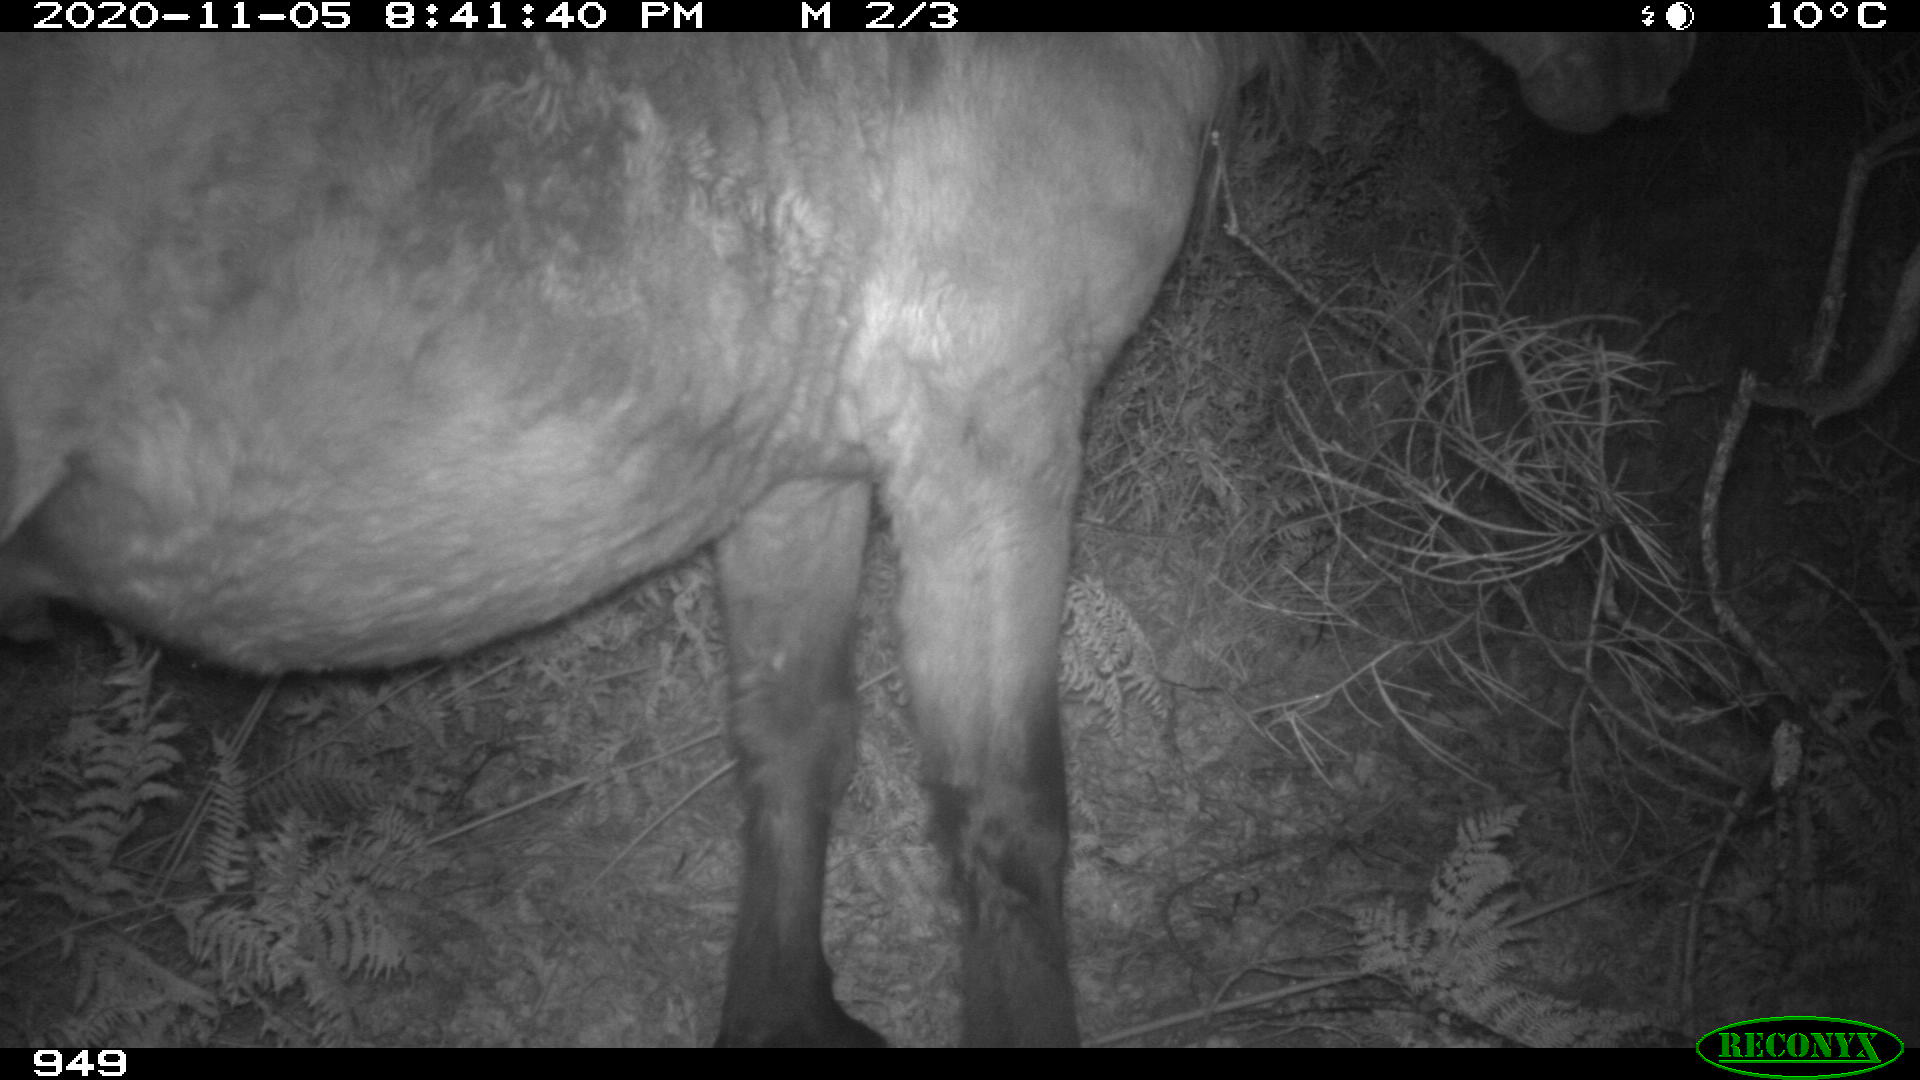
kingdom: Animalia
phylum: Chordata
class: Mammalia
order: Perissodactyla
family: Equidae
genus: Equus
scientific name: Equus caballus
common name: Horse
